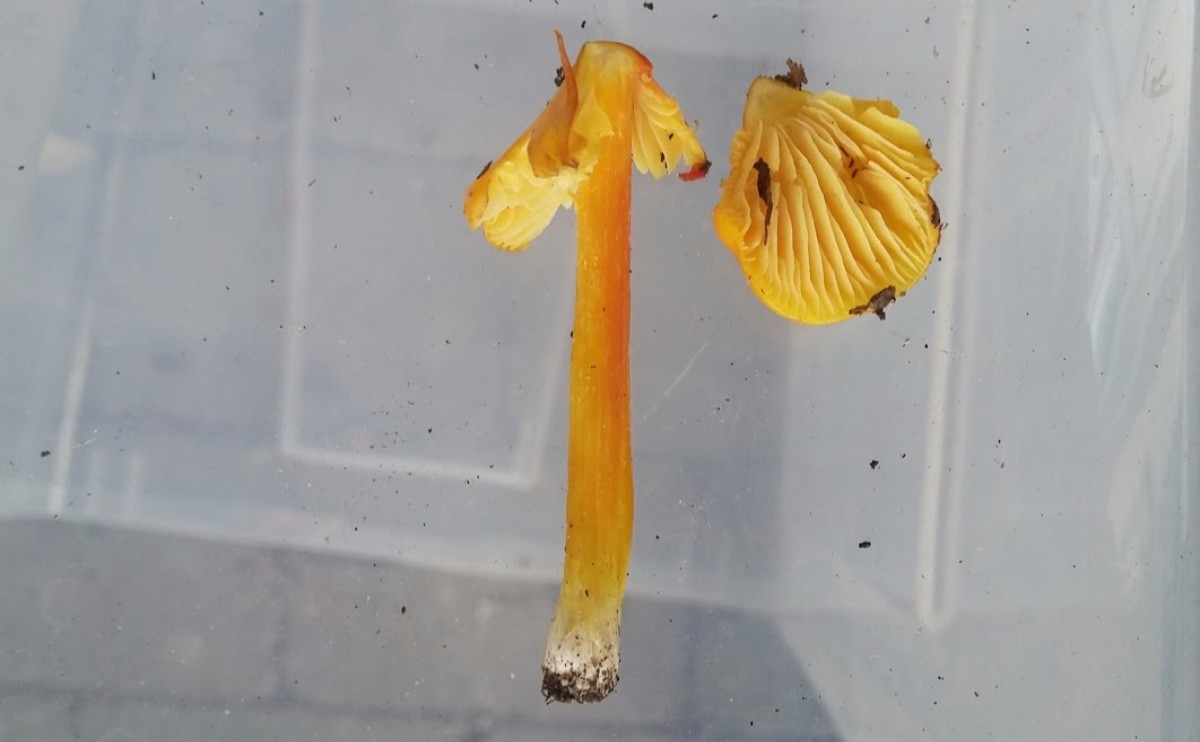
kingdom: Fungi
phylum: Basidiomycota
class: Agaricomycetes
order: Agaricales
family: Hygrophoraceae
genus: Hygrocybe
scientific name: Hygrocybe conica
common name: kegle-vokshat
